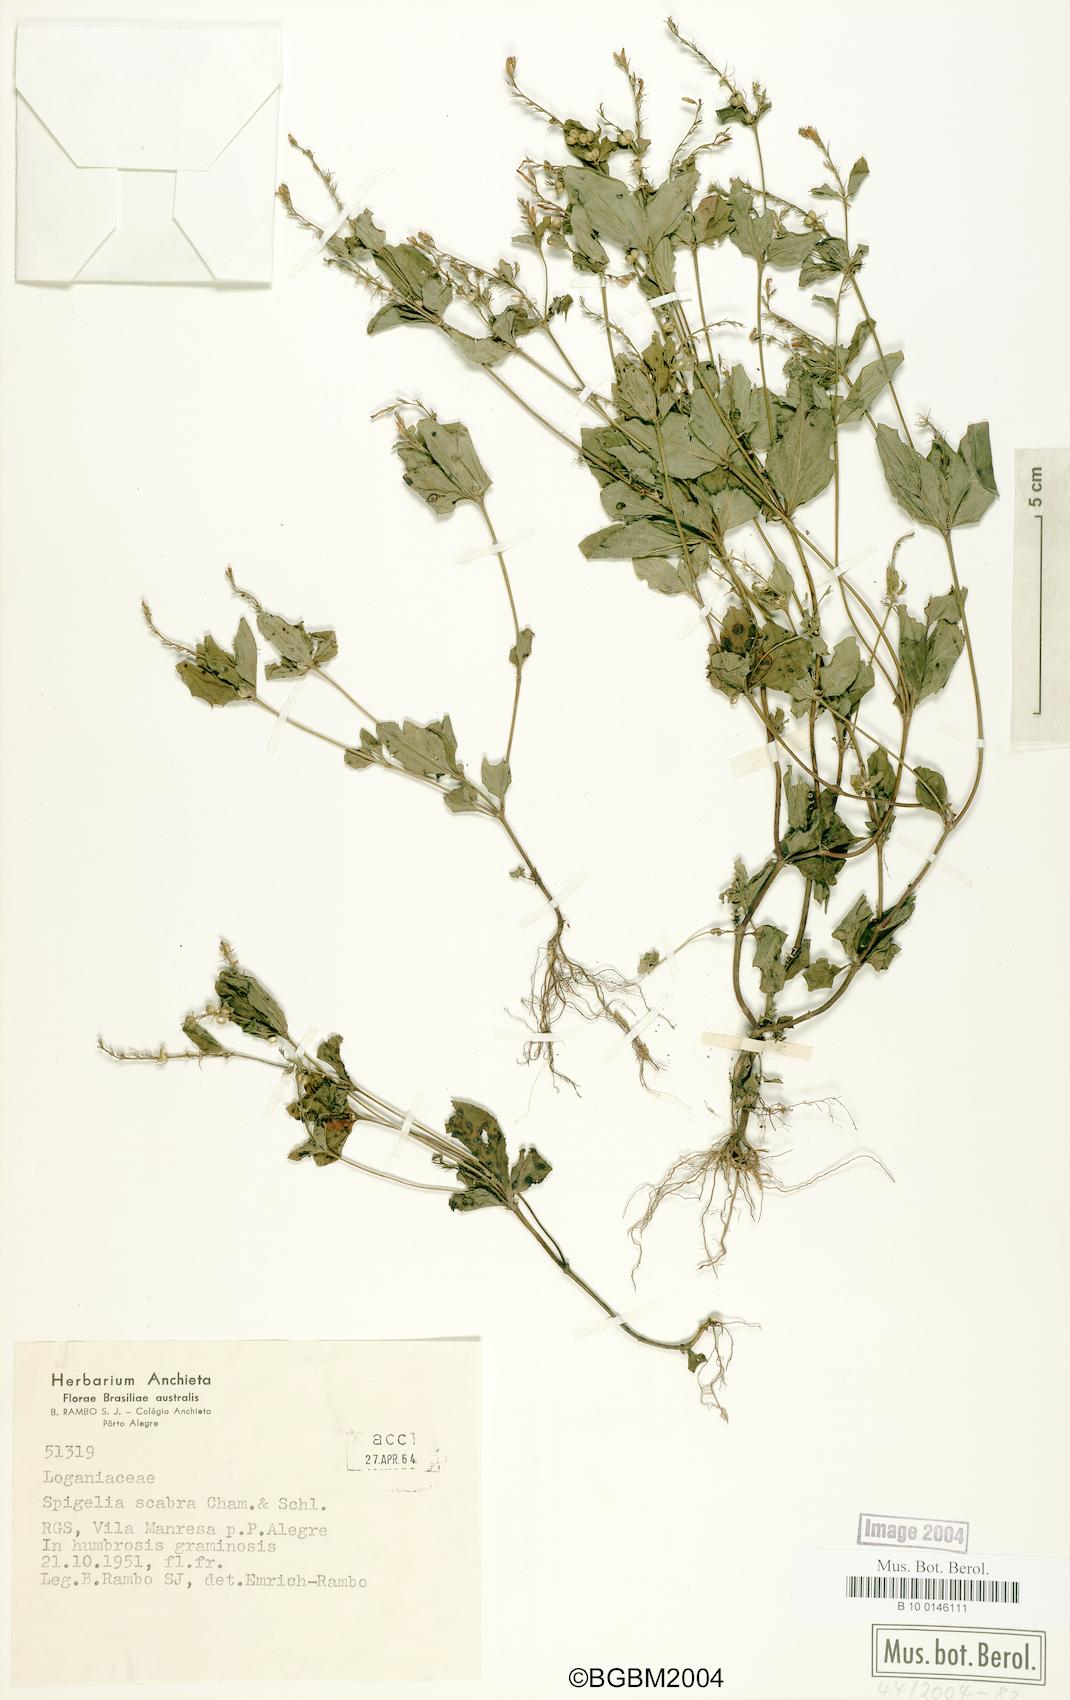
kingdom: Plantae
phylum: Tracheophyta
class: Magnoliopsida
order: Gentianales
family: Loganiaceae
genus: Spigelia
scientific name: Spigelia humboldtiana
